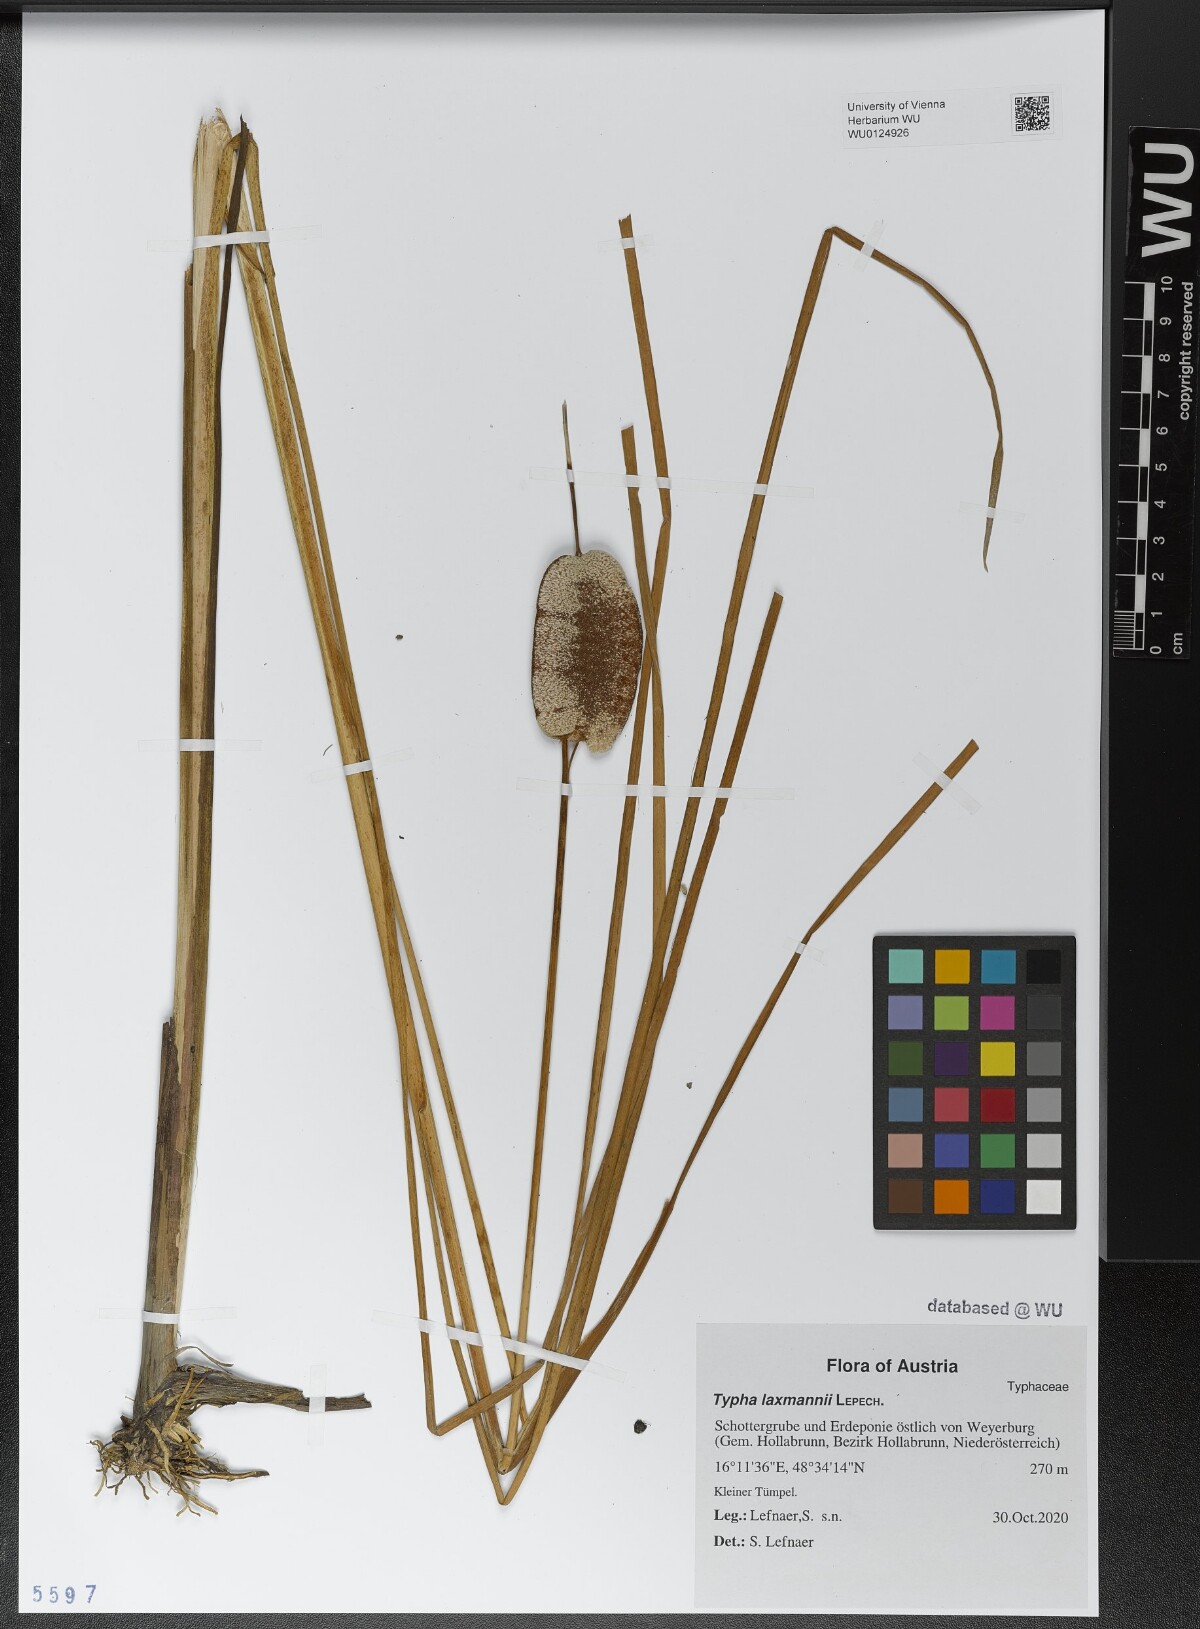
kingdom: Plantae
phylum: Tracheophyta
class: Liliopsida
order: Poales
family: Typhaceae
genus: Typha
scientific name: Typha laxmannii
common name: Laxman’s bulrush
